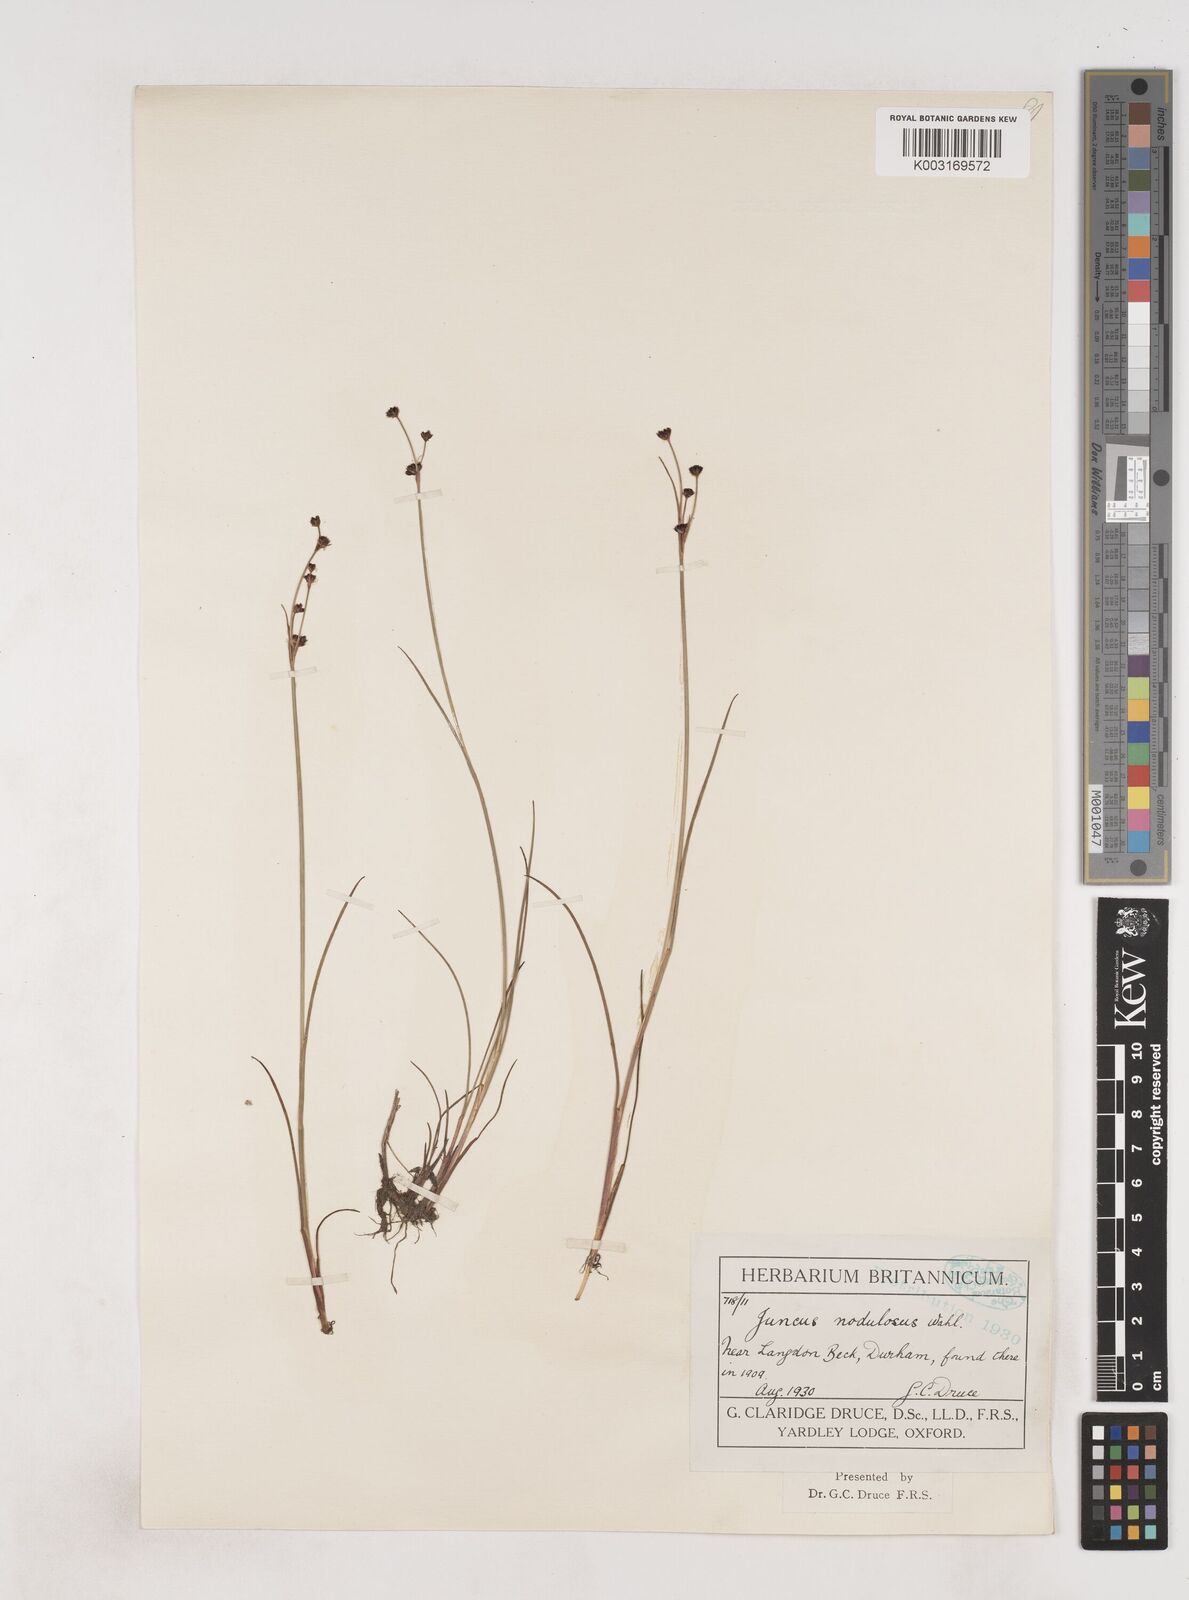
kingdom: Plantae
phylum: Tracheophyta
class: Liliopsida
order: Poales
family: Juncaceae
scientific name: Juncaceae
